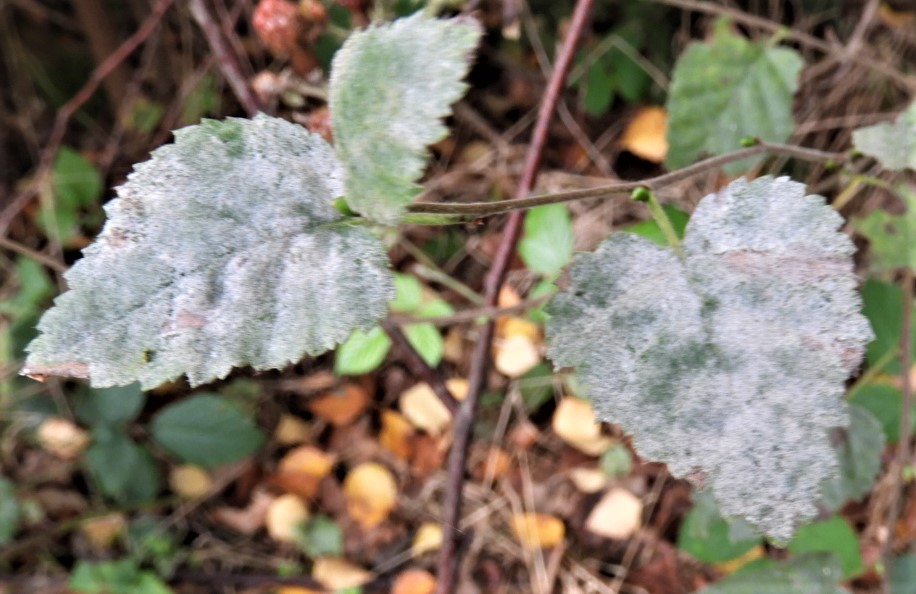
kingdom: Fungi
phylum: Ascomycota
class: Leotiomycetes
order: Helotiales
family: Erysiphaceae
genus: Erysiphe
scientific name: Erysiphe ornata
